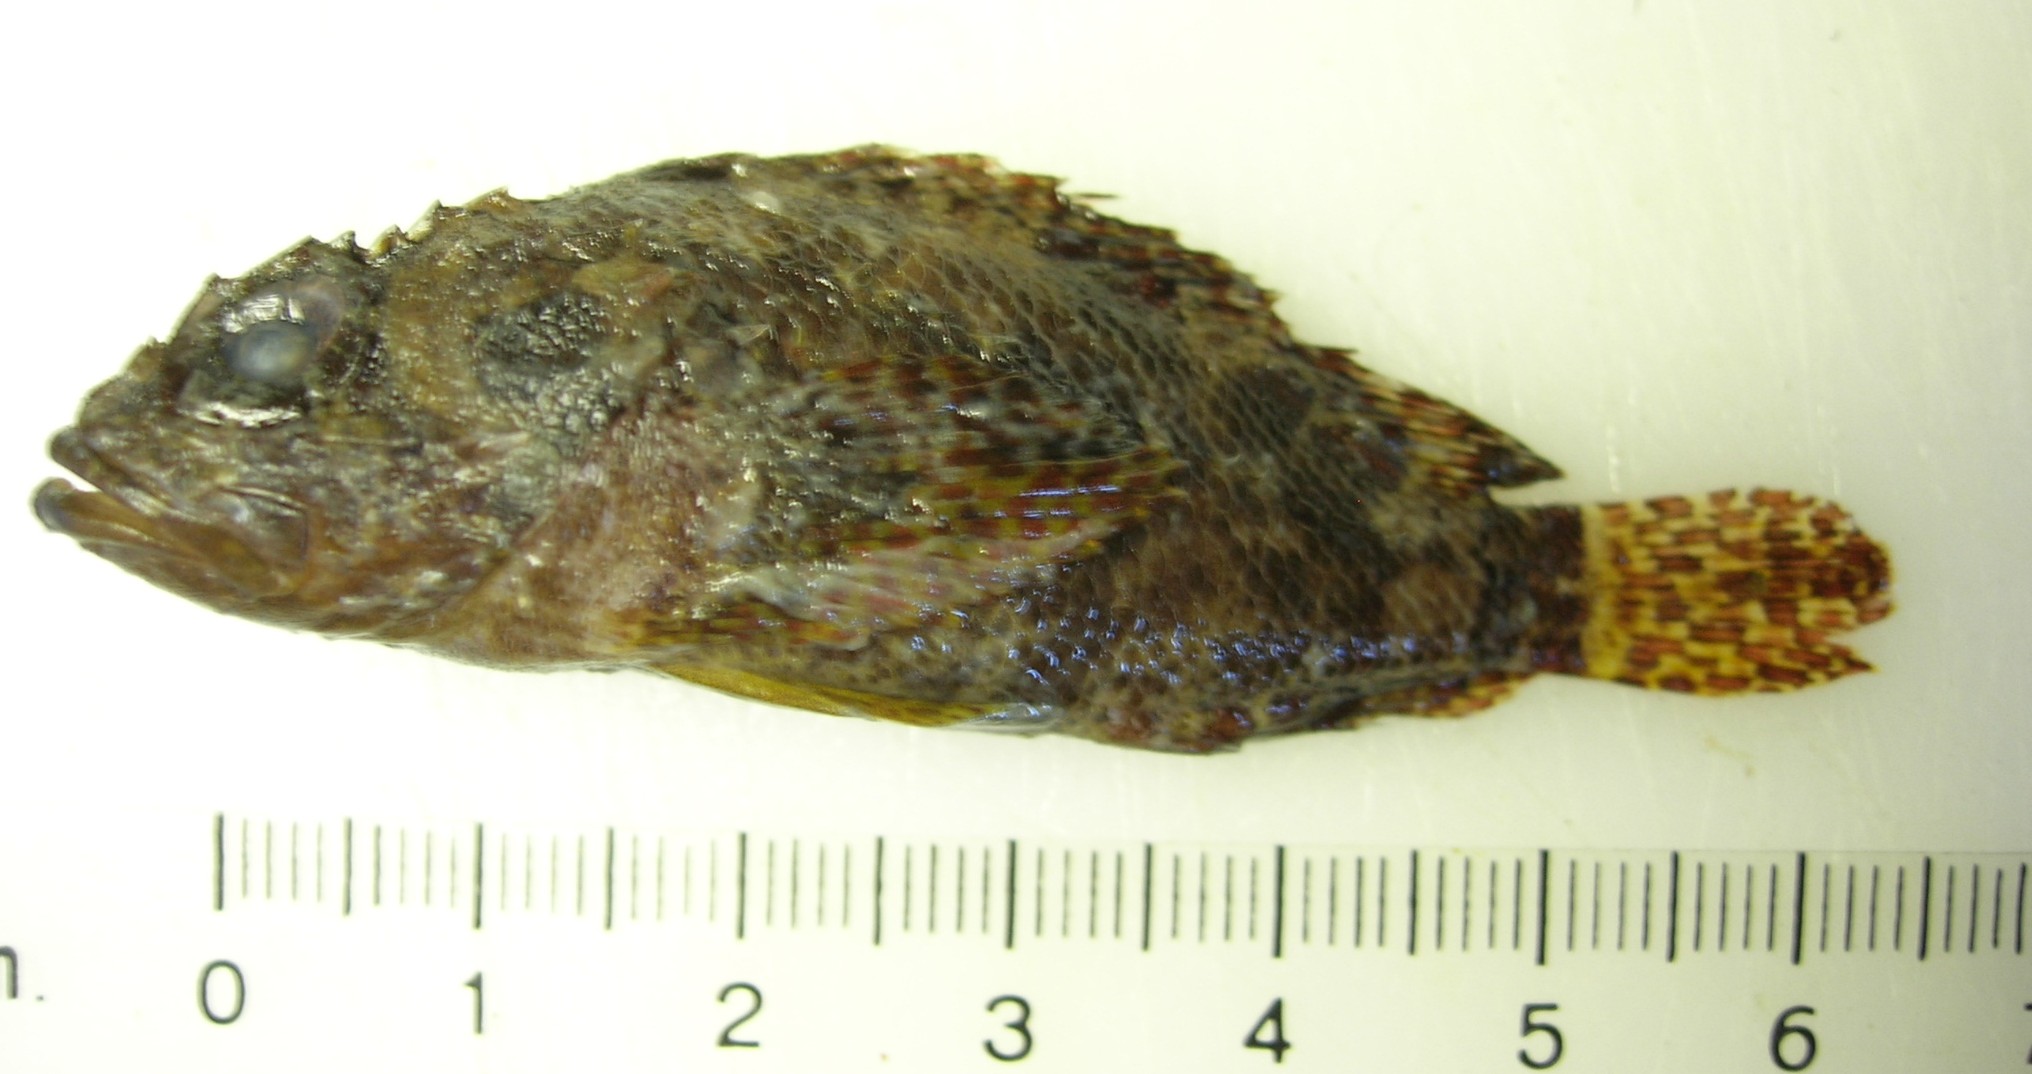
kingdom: Animalia
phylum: Chordata
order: Scorpaeniformes
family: Scorpaenidae
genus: Scorpaenodes
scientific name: Scorpaenodes guamensis
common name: Guam scorpionfish
